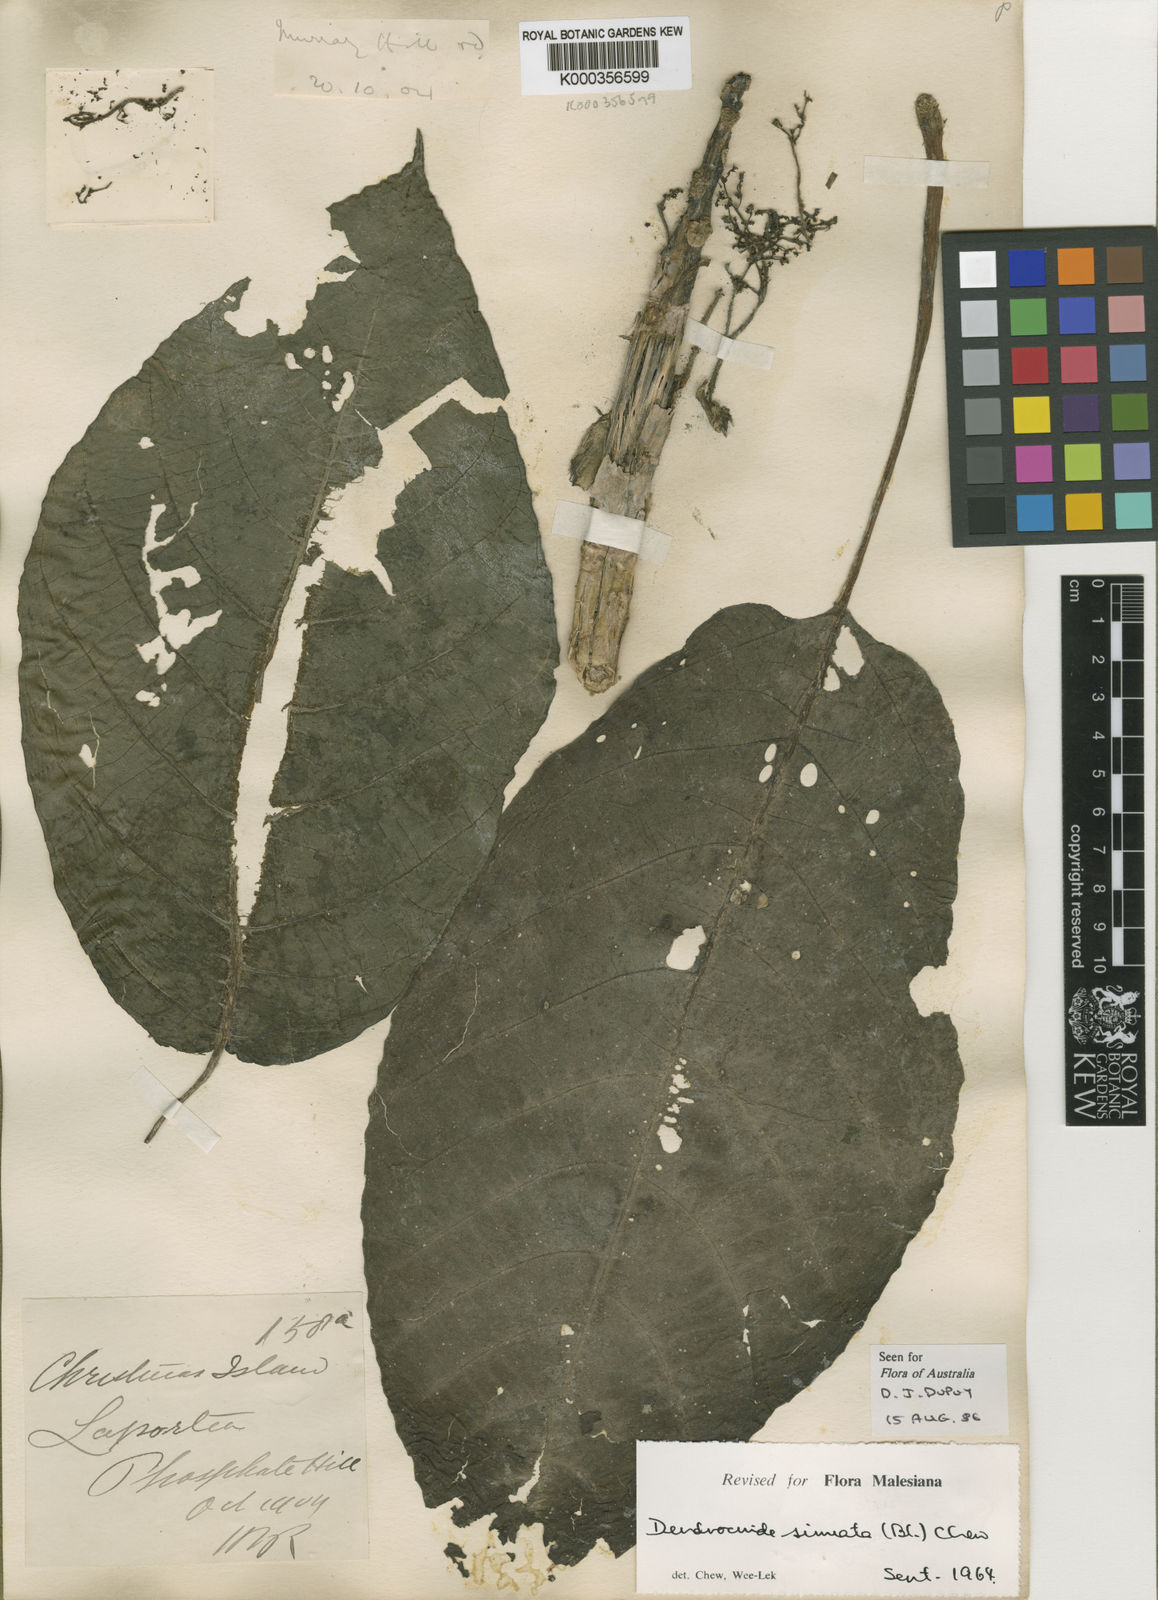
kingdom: Plantae
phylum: Tracheophyta
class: Magnoliopsida
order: Rosales
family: Urticaceae
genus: Dendrocnide
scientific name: Dendrocnide sinuata
